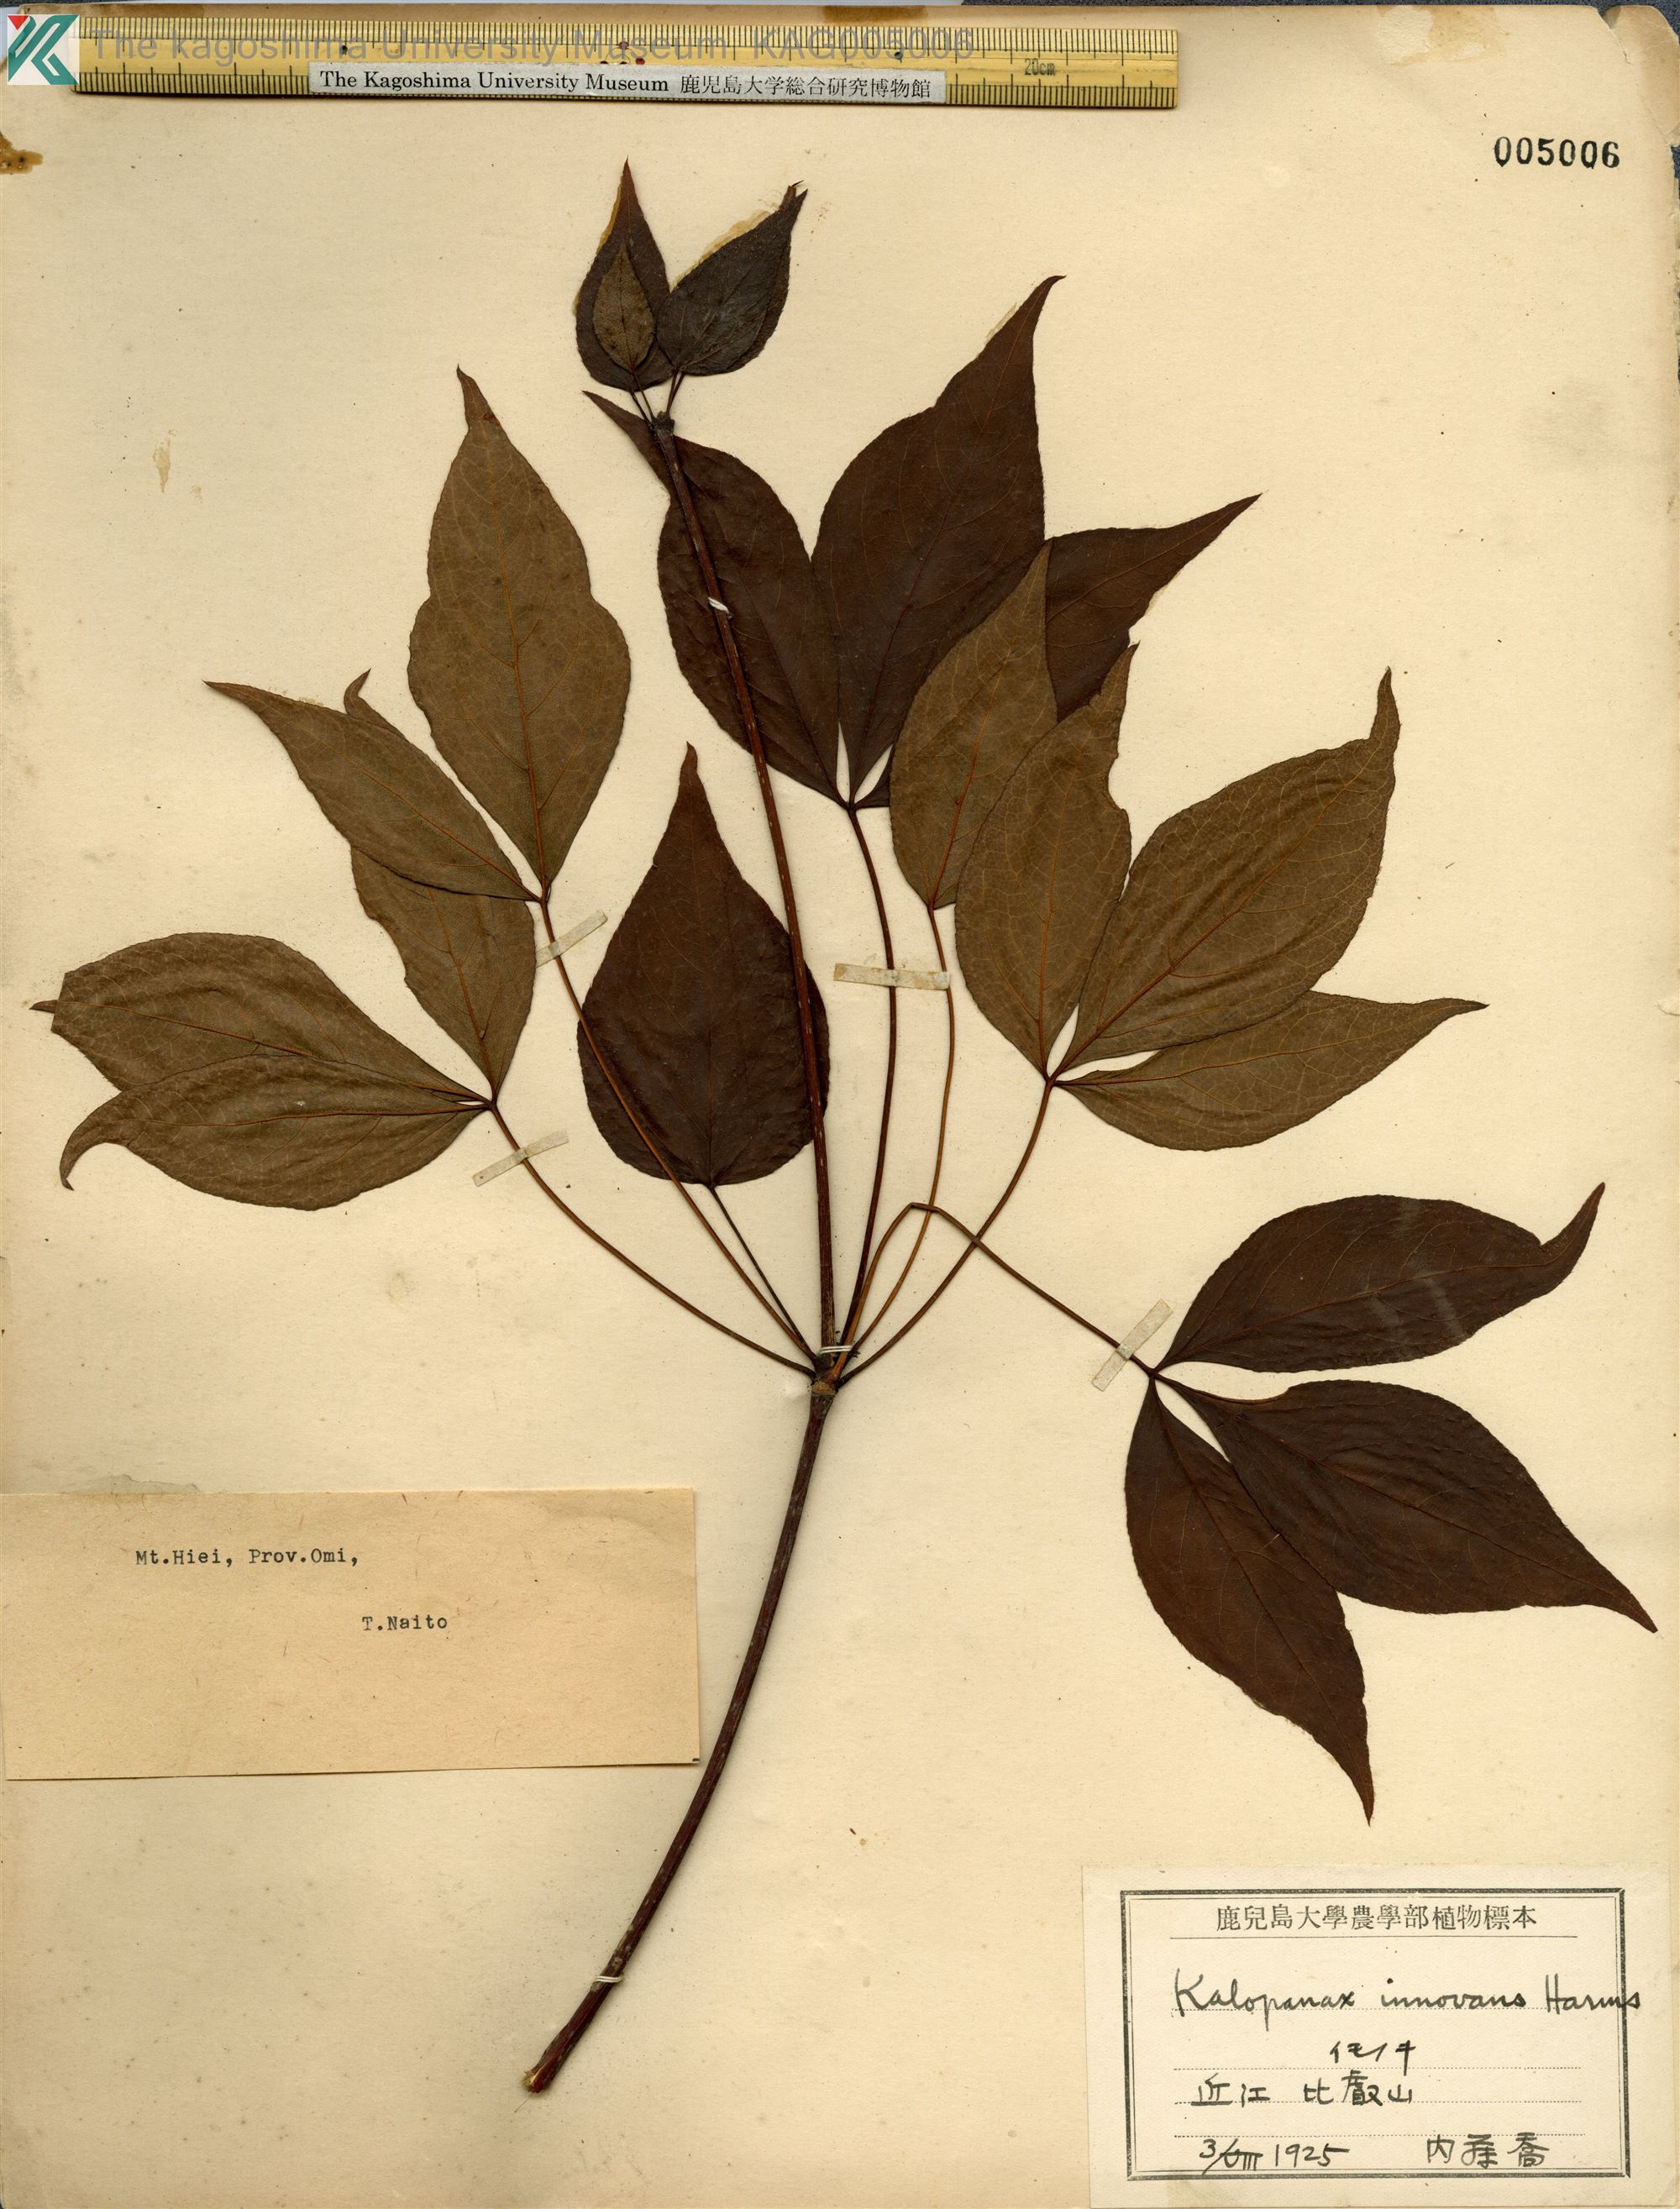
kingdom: Plantae
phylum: Tracheophyta
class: Magnoliopsida
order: Apiales
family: Araliaceae
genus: Gamblea
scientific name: Gamblea innovans
